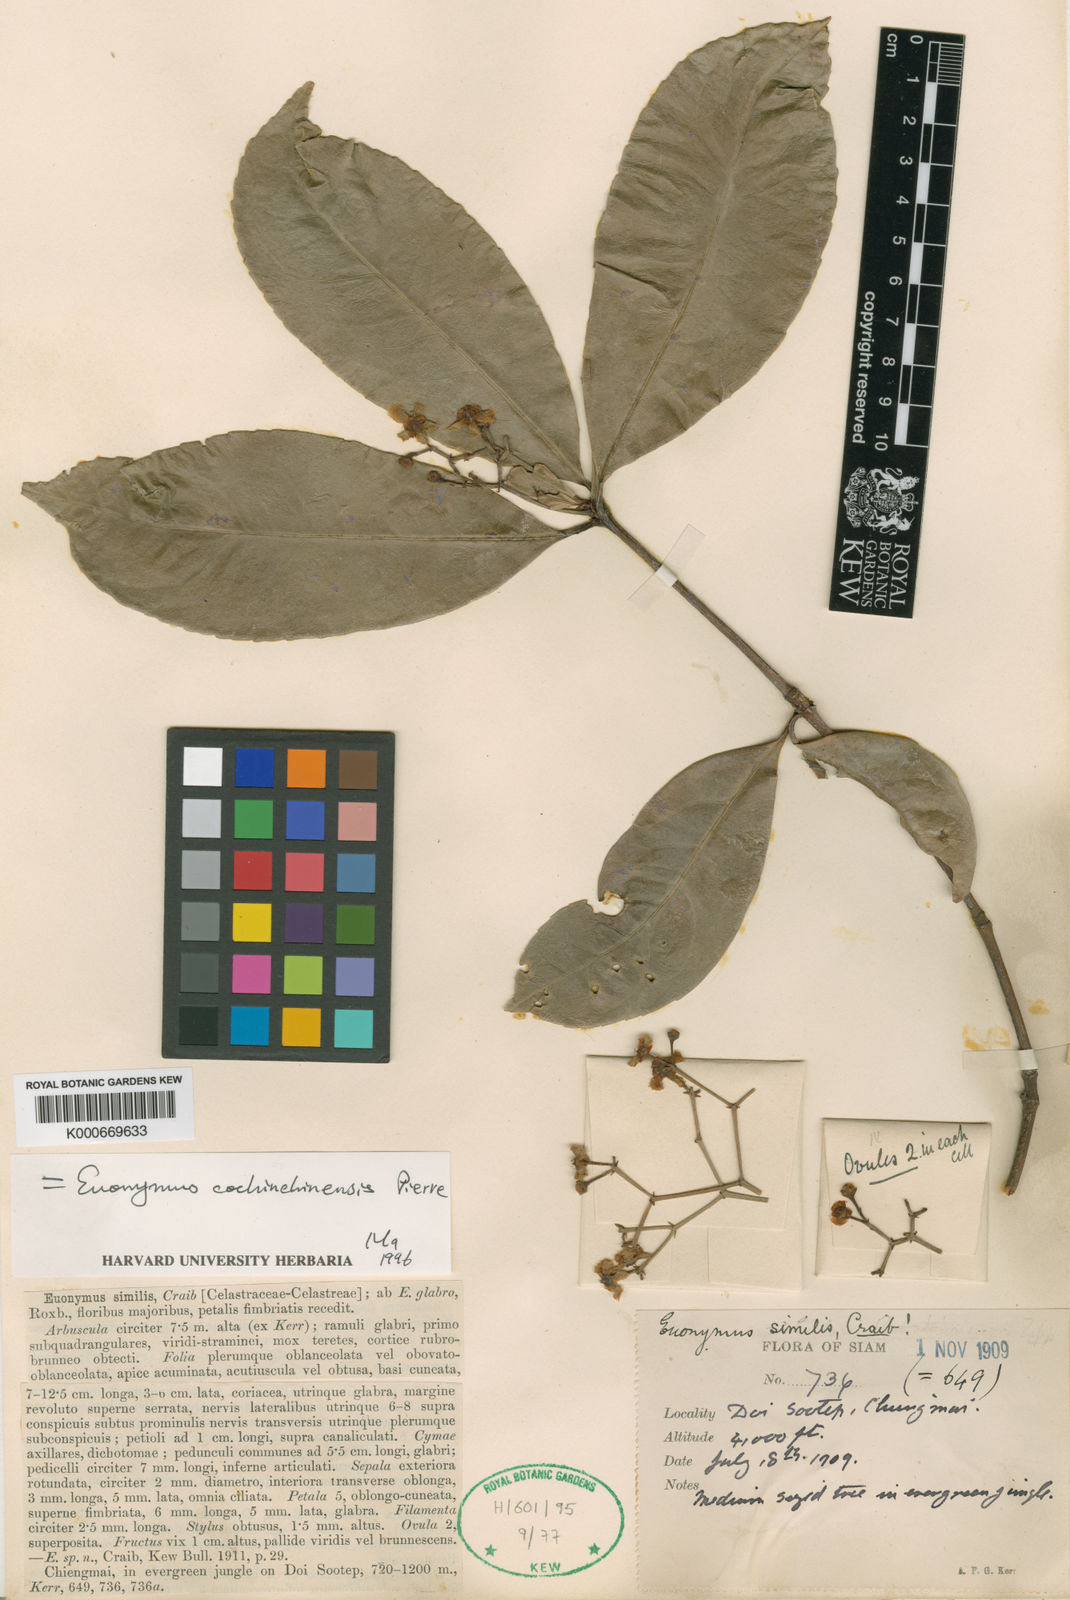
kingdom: Plantae
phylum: Tracheophyta
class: Magnoliopsida
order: Celastrales
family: Celastraceae
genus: Euonymus
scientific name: Euonymus cochinchinensis
